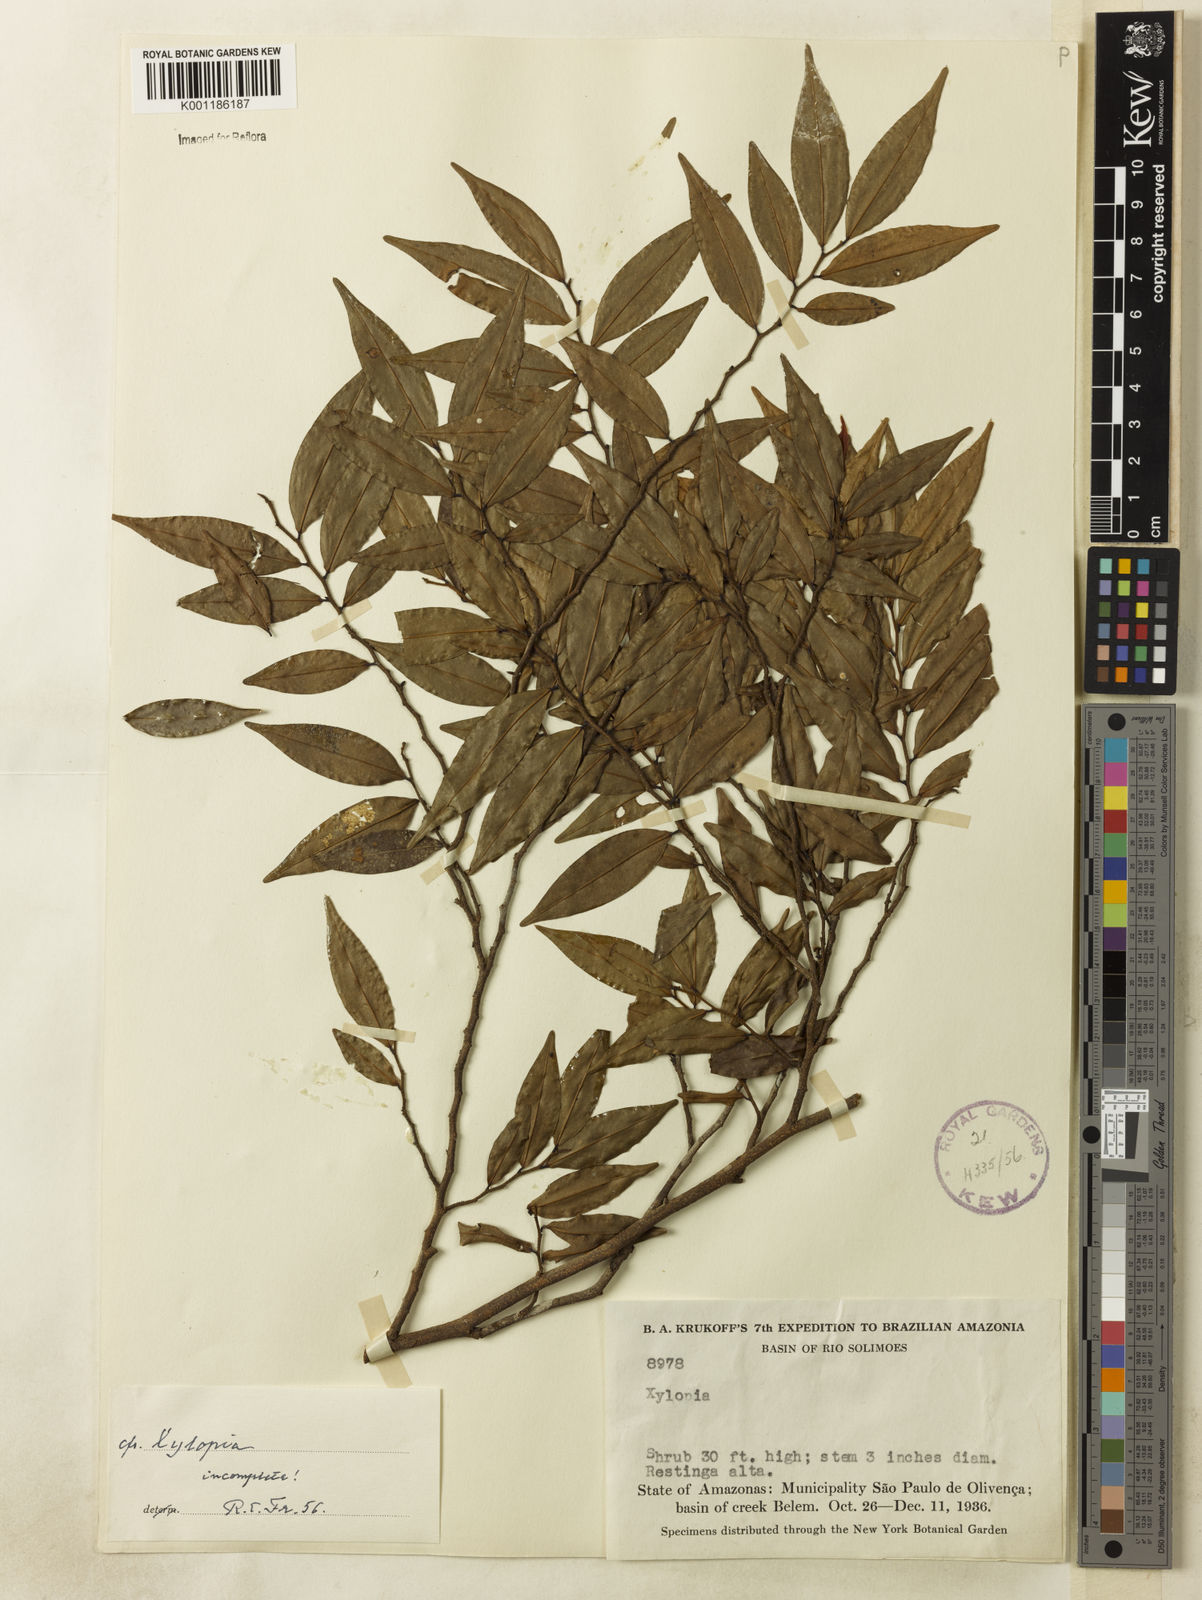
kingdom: Plantae
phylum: Tracheophyta
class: Magnoliopsida
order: Magnoliales
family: Annonaceae
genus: Xylopia
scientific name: Xylopia
